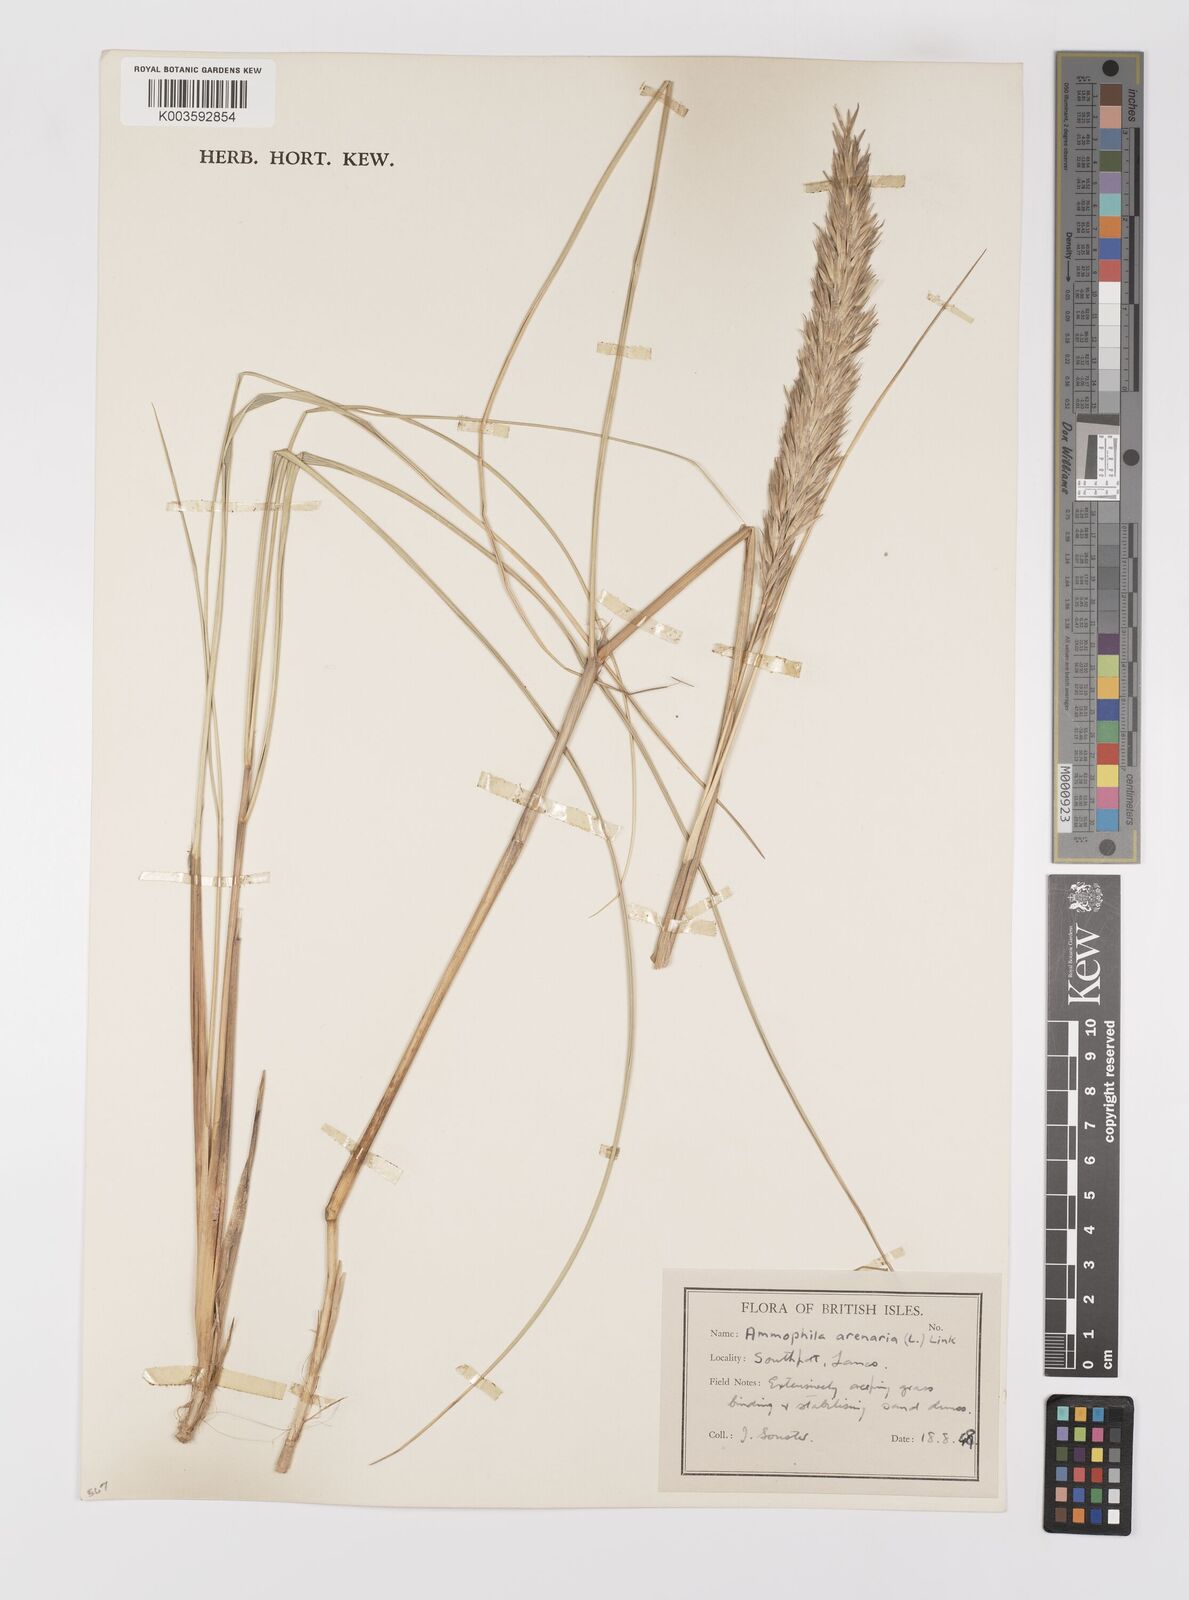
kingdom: Plantae
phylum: Tracheophyta
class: Liliopsida
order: Poales
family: Poaceae
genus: Calamagrostis
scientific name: Calamagrostis arenaria
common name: European beachgrass
